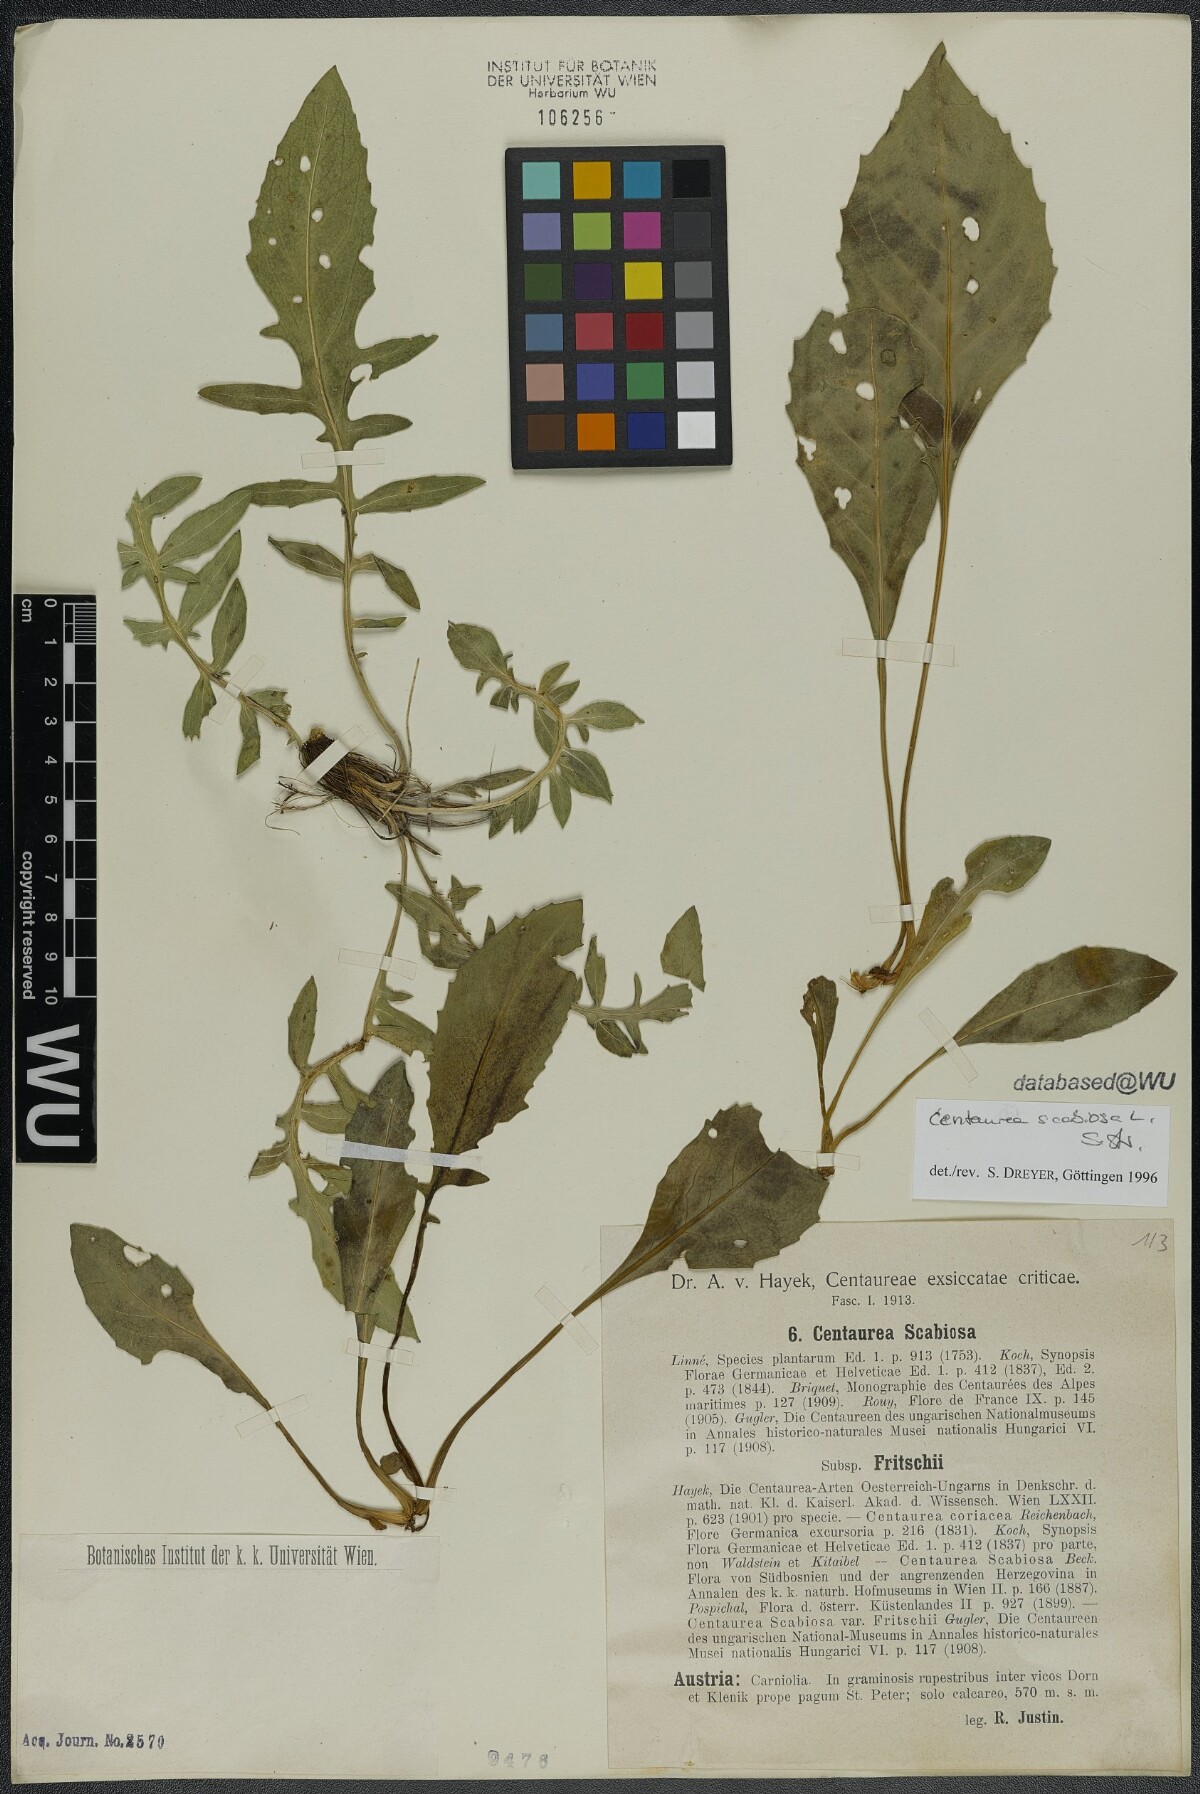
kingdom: Plantae
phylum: Tracheophyta
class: Magnoliopsida
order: Asterales
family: Asteraceae
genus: Centaurea
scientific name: Centaurea scabiosa
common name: Greater knapweed
